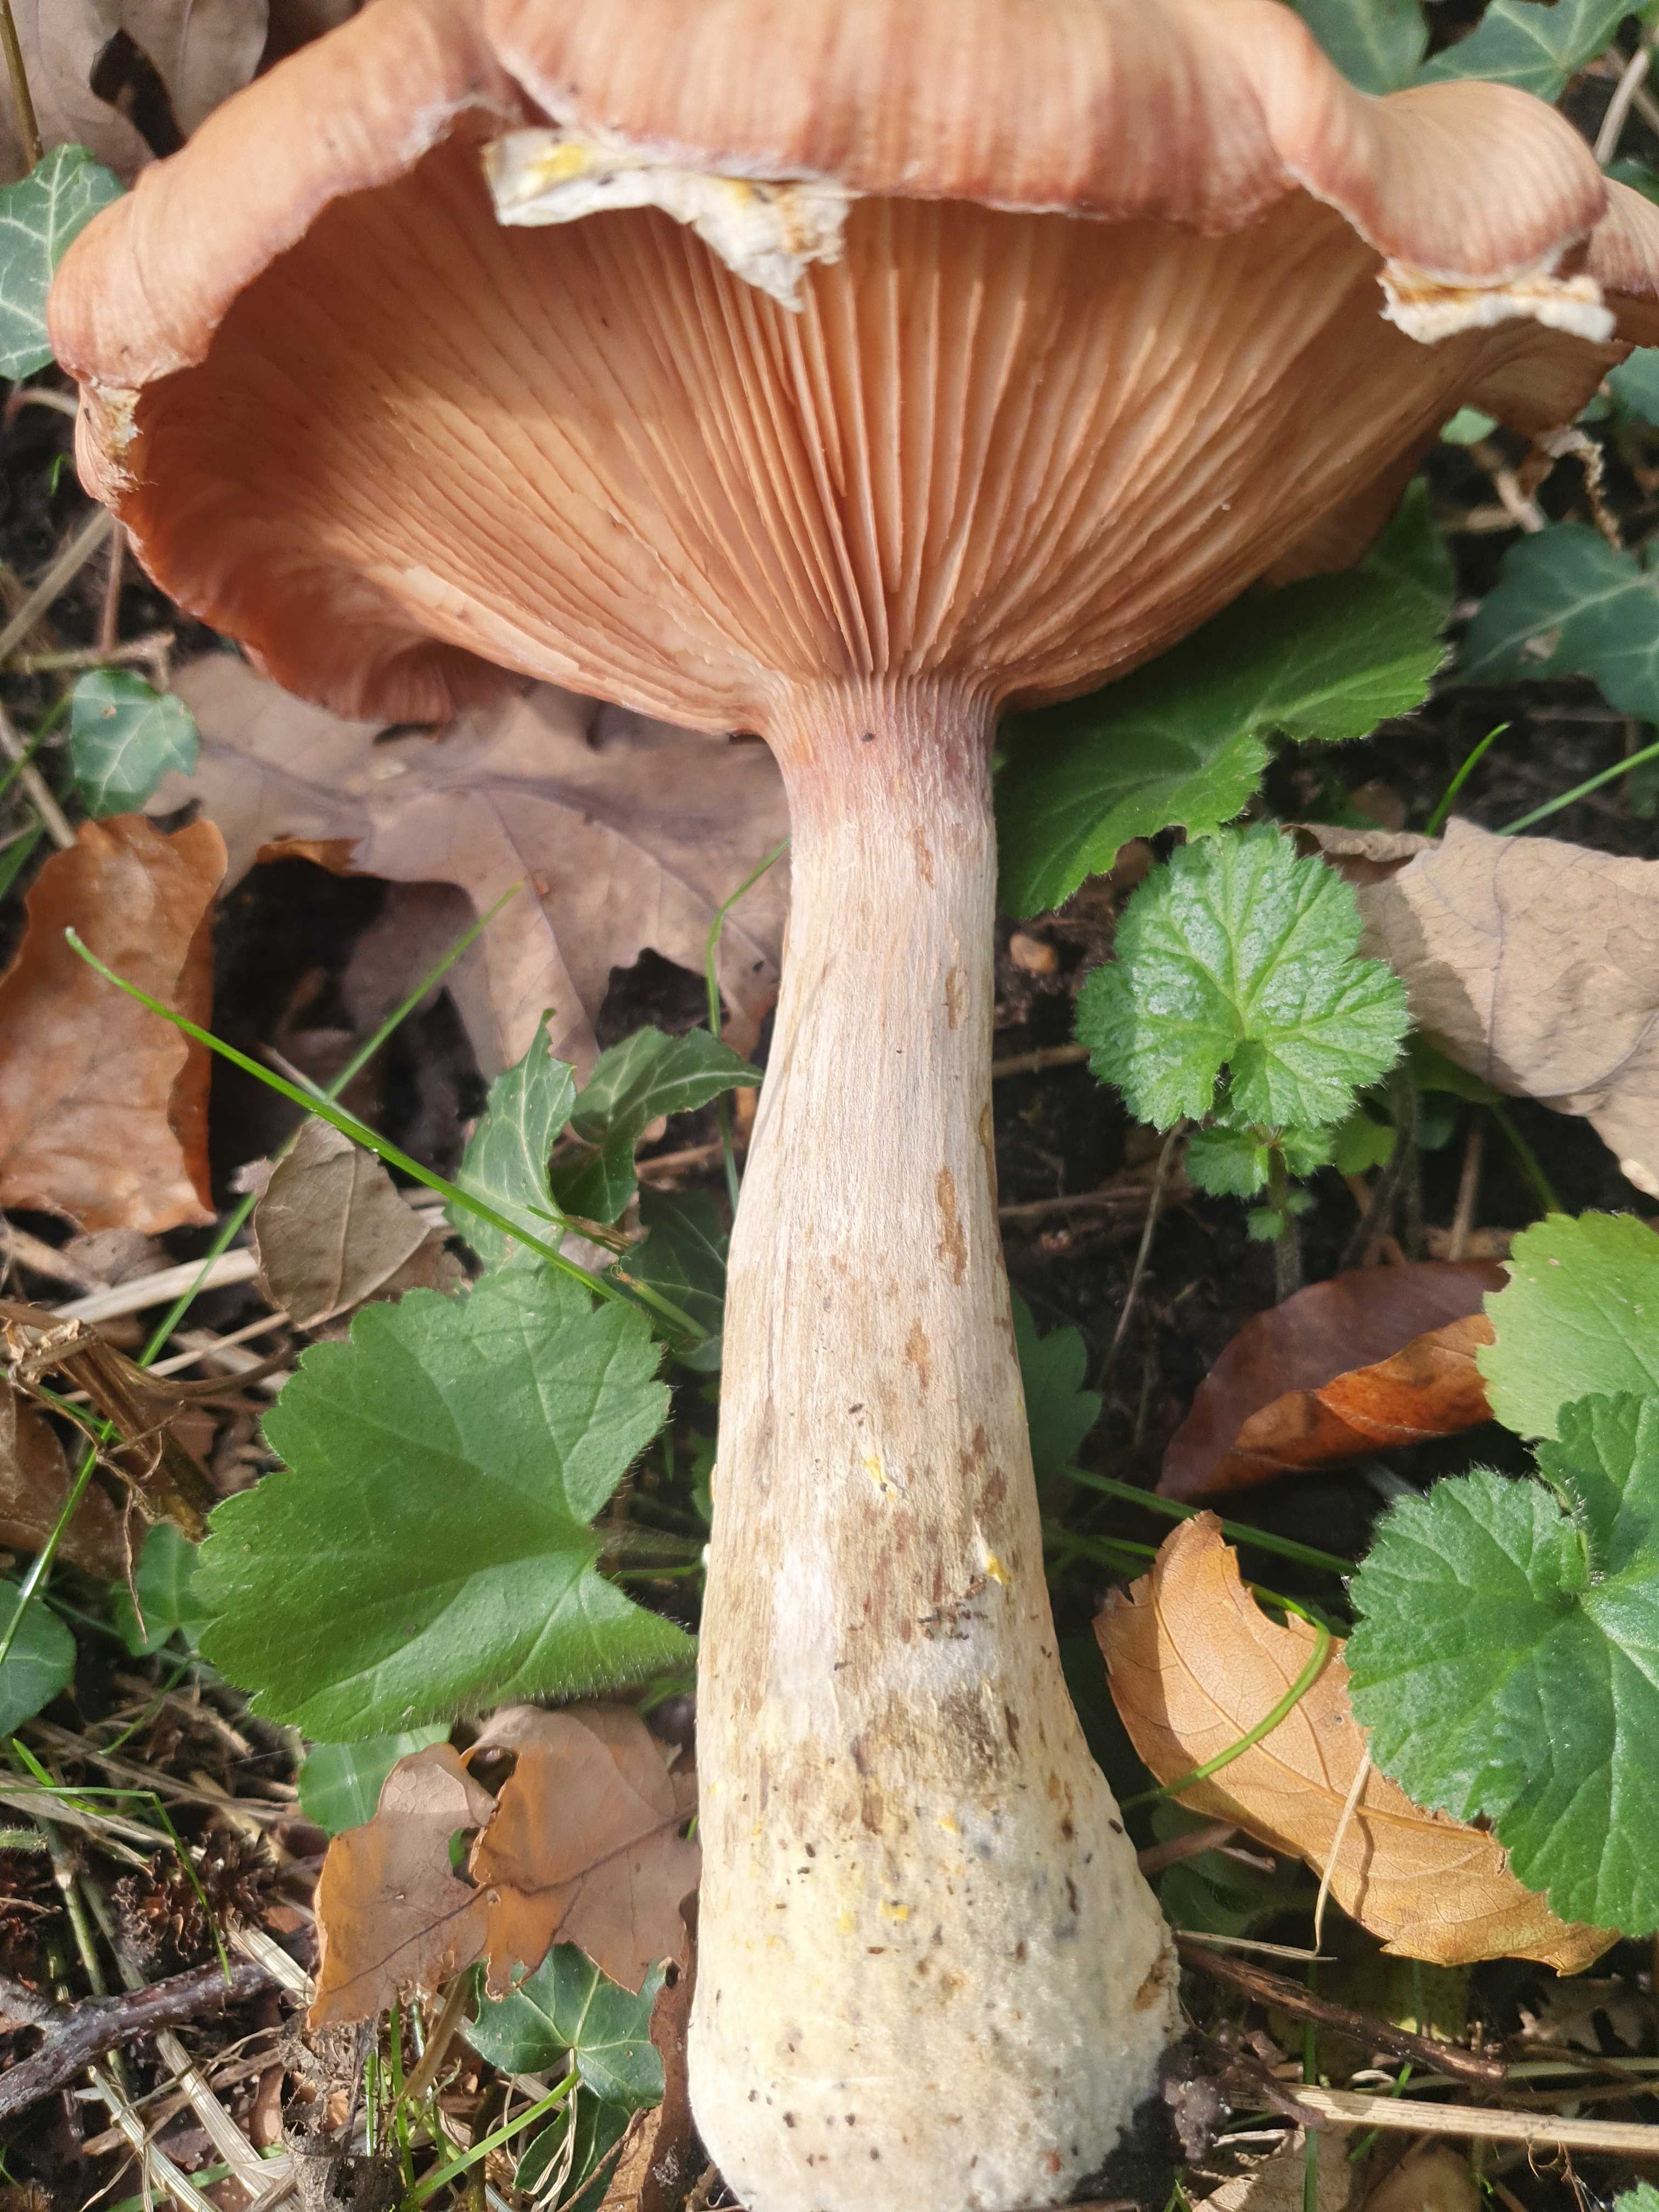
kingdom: Fungi
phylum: Basidiomycota
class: Agaricomycetes
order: Agaricales
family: Physalacriaceae
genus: Armillaria
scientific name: Armillaria lutea
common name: køllestokket honningsvamp
